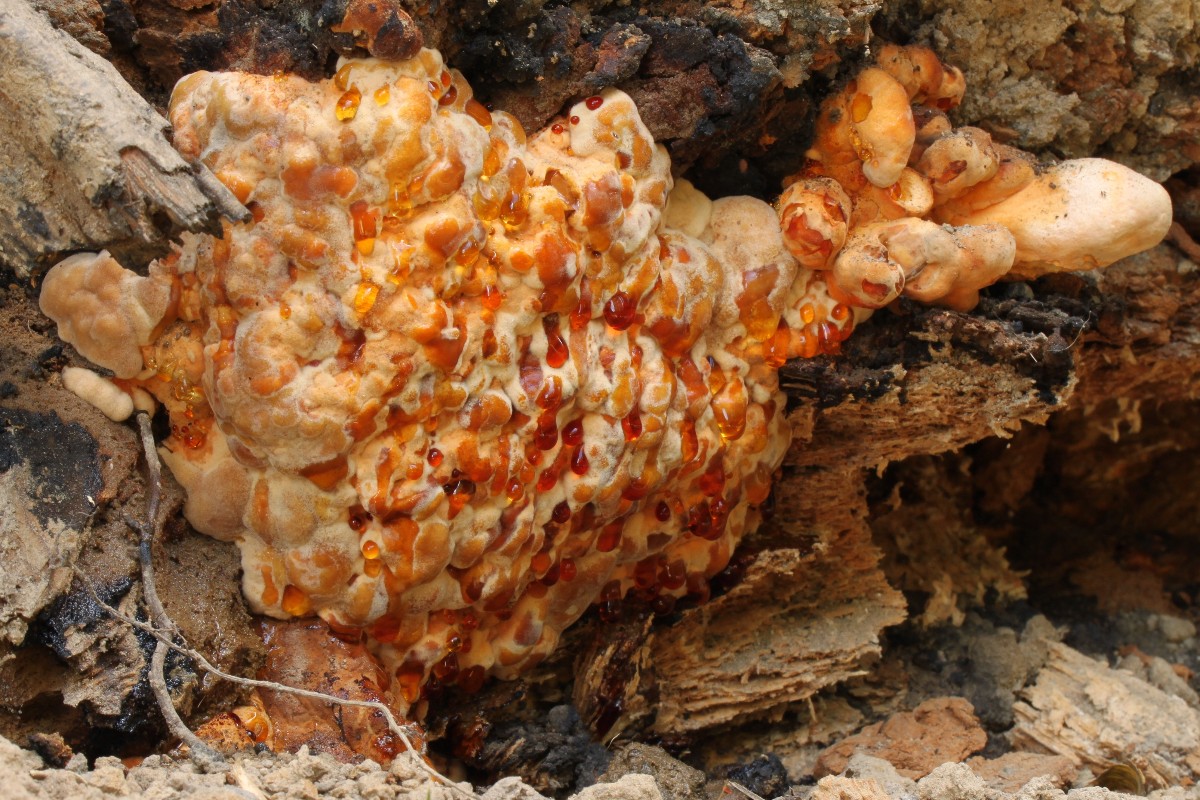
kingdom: Fungi
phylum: Basidiomycota
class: Agaricomycetes
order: Polyporales
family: Laetiporaceae
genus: Laetiporus
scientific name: Laetiporus sulphureus
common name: svovlporesvamp
